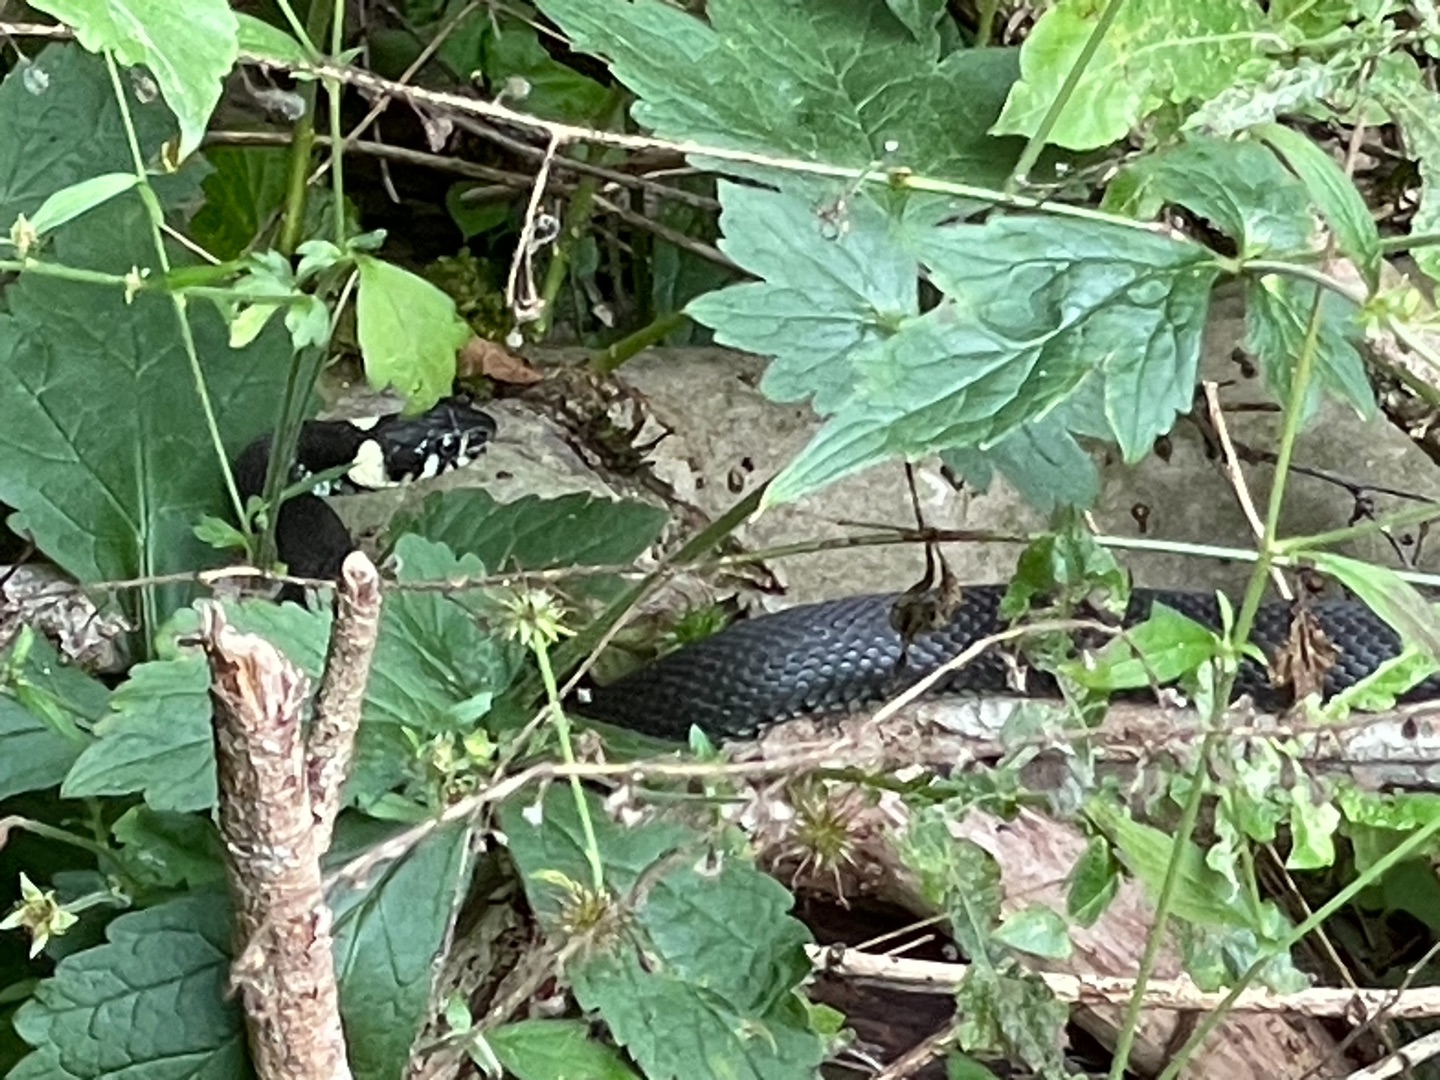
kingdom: Animalia
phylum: Chordata
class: Squamata
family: Colubridae
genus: Natrix
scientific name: Natrix natrix
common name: Snog
